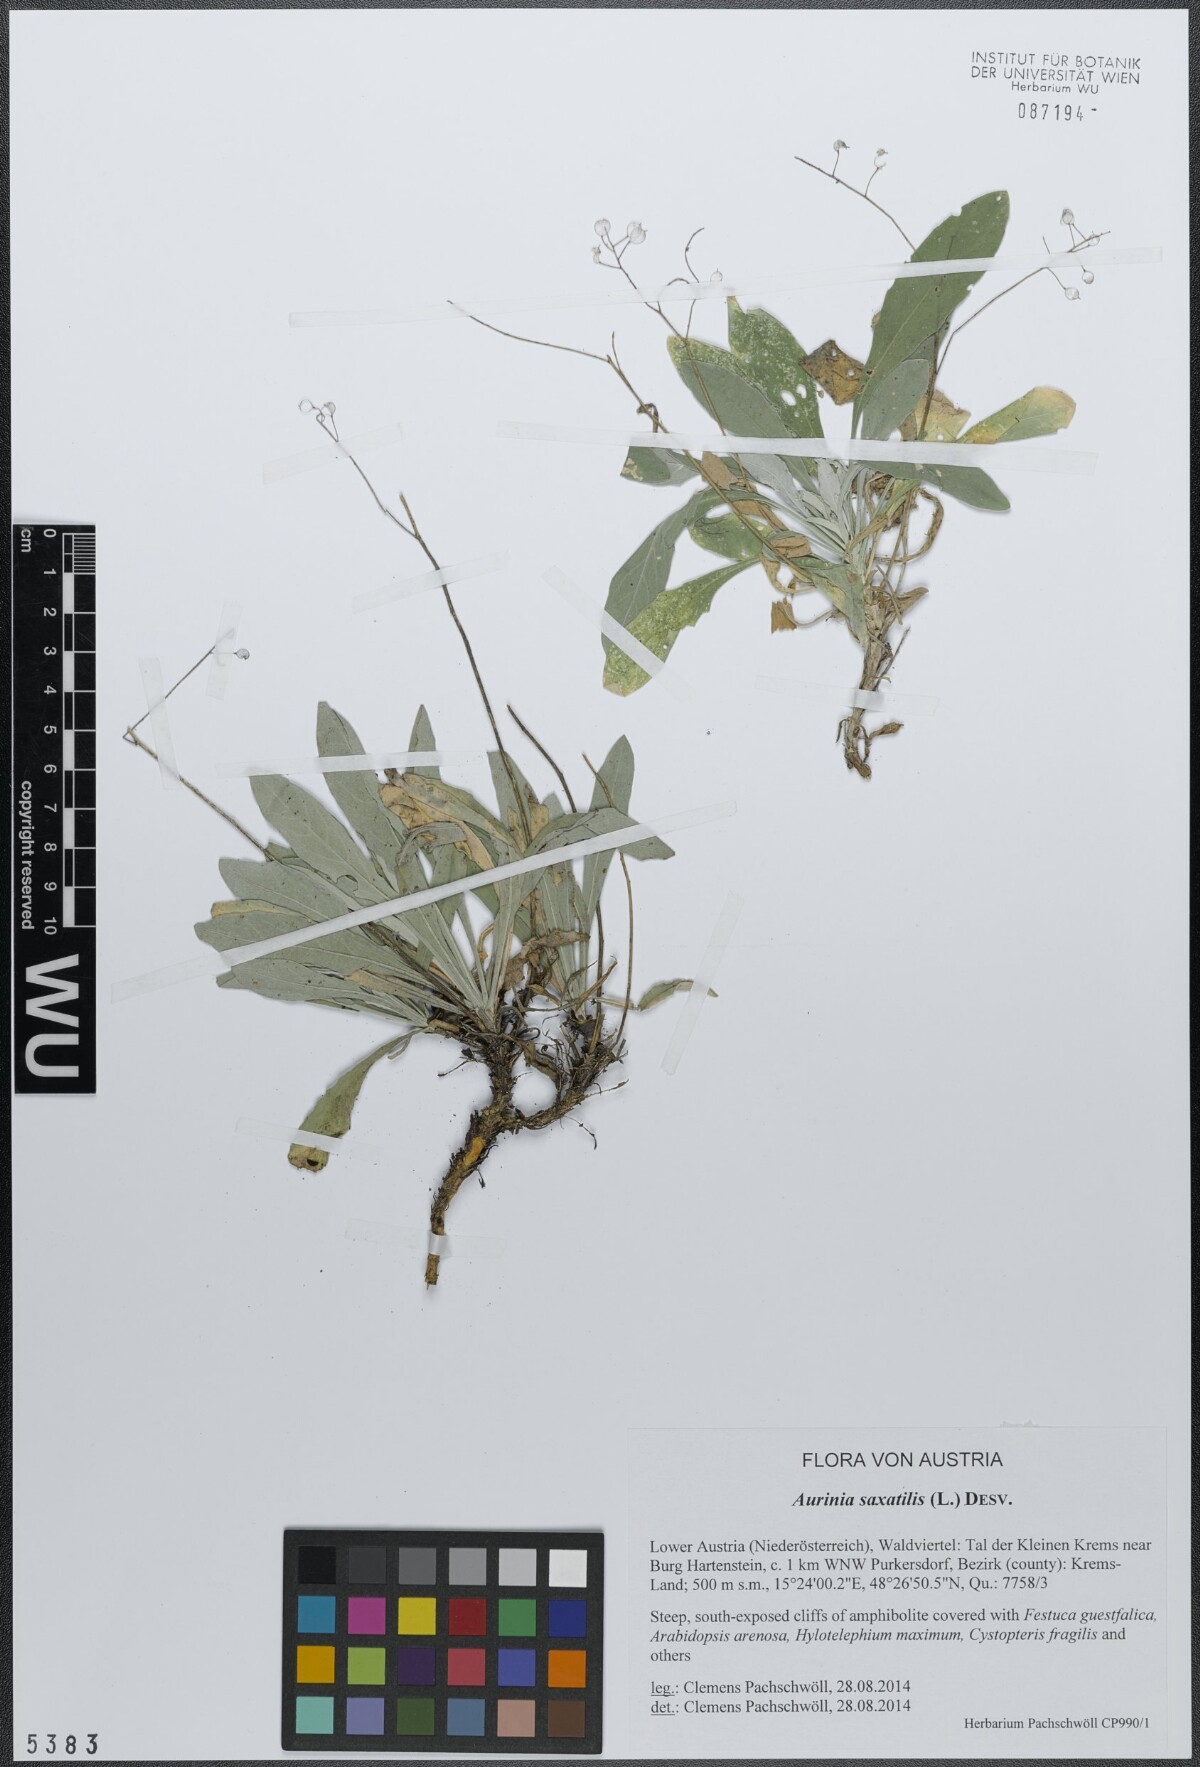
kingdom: Plantae
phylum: Tracheophyta
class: Magnoliopsida
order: Brassicales
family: Brassicaceae
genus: Aurinia
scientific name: Aurinia saxatilis
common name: Golden-tuft alyssum
